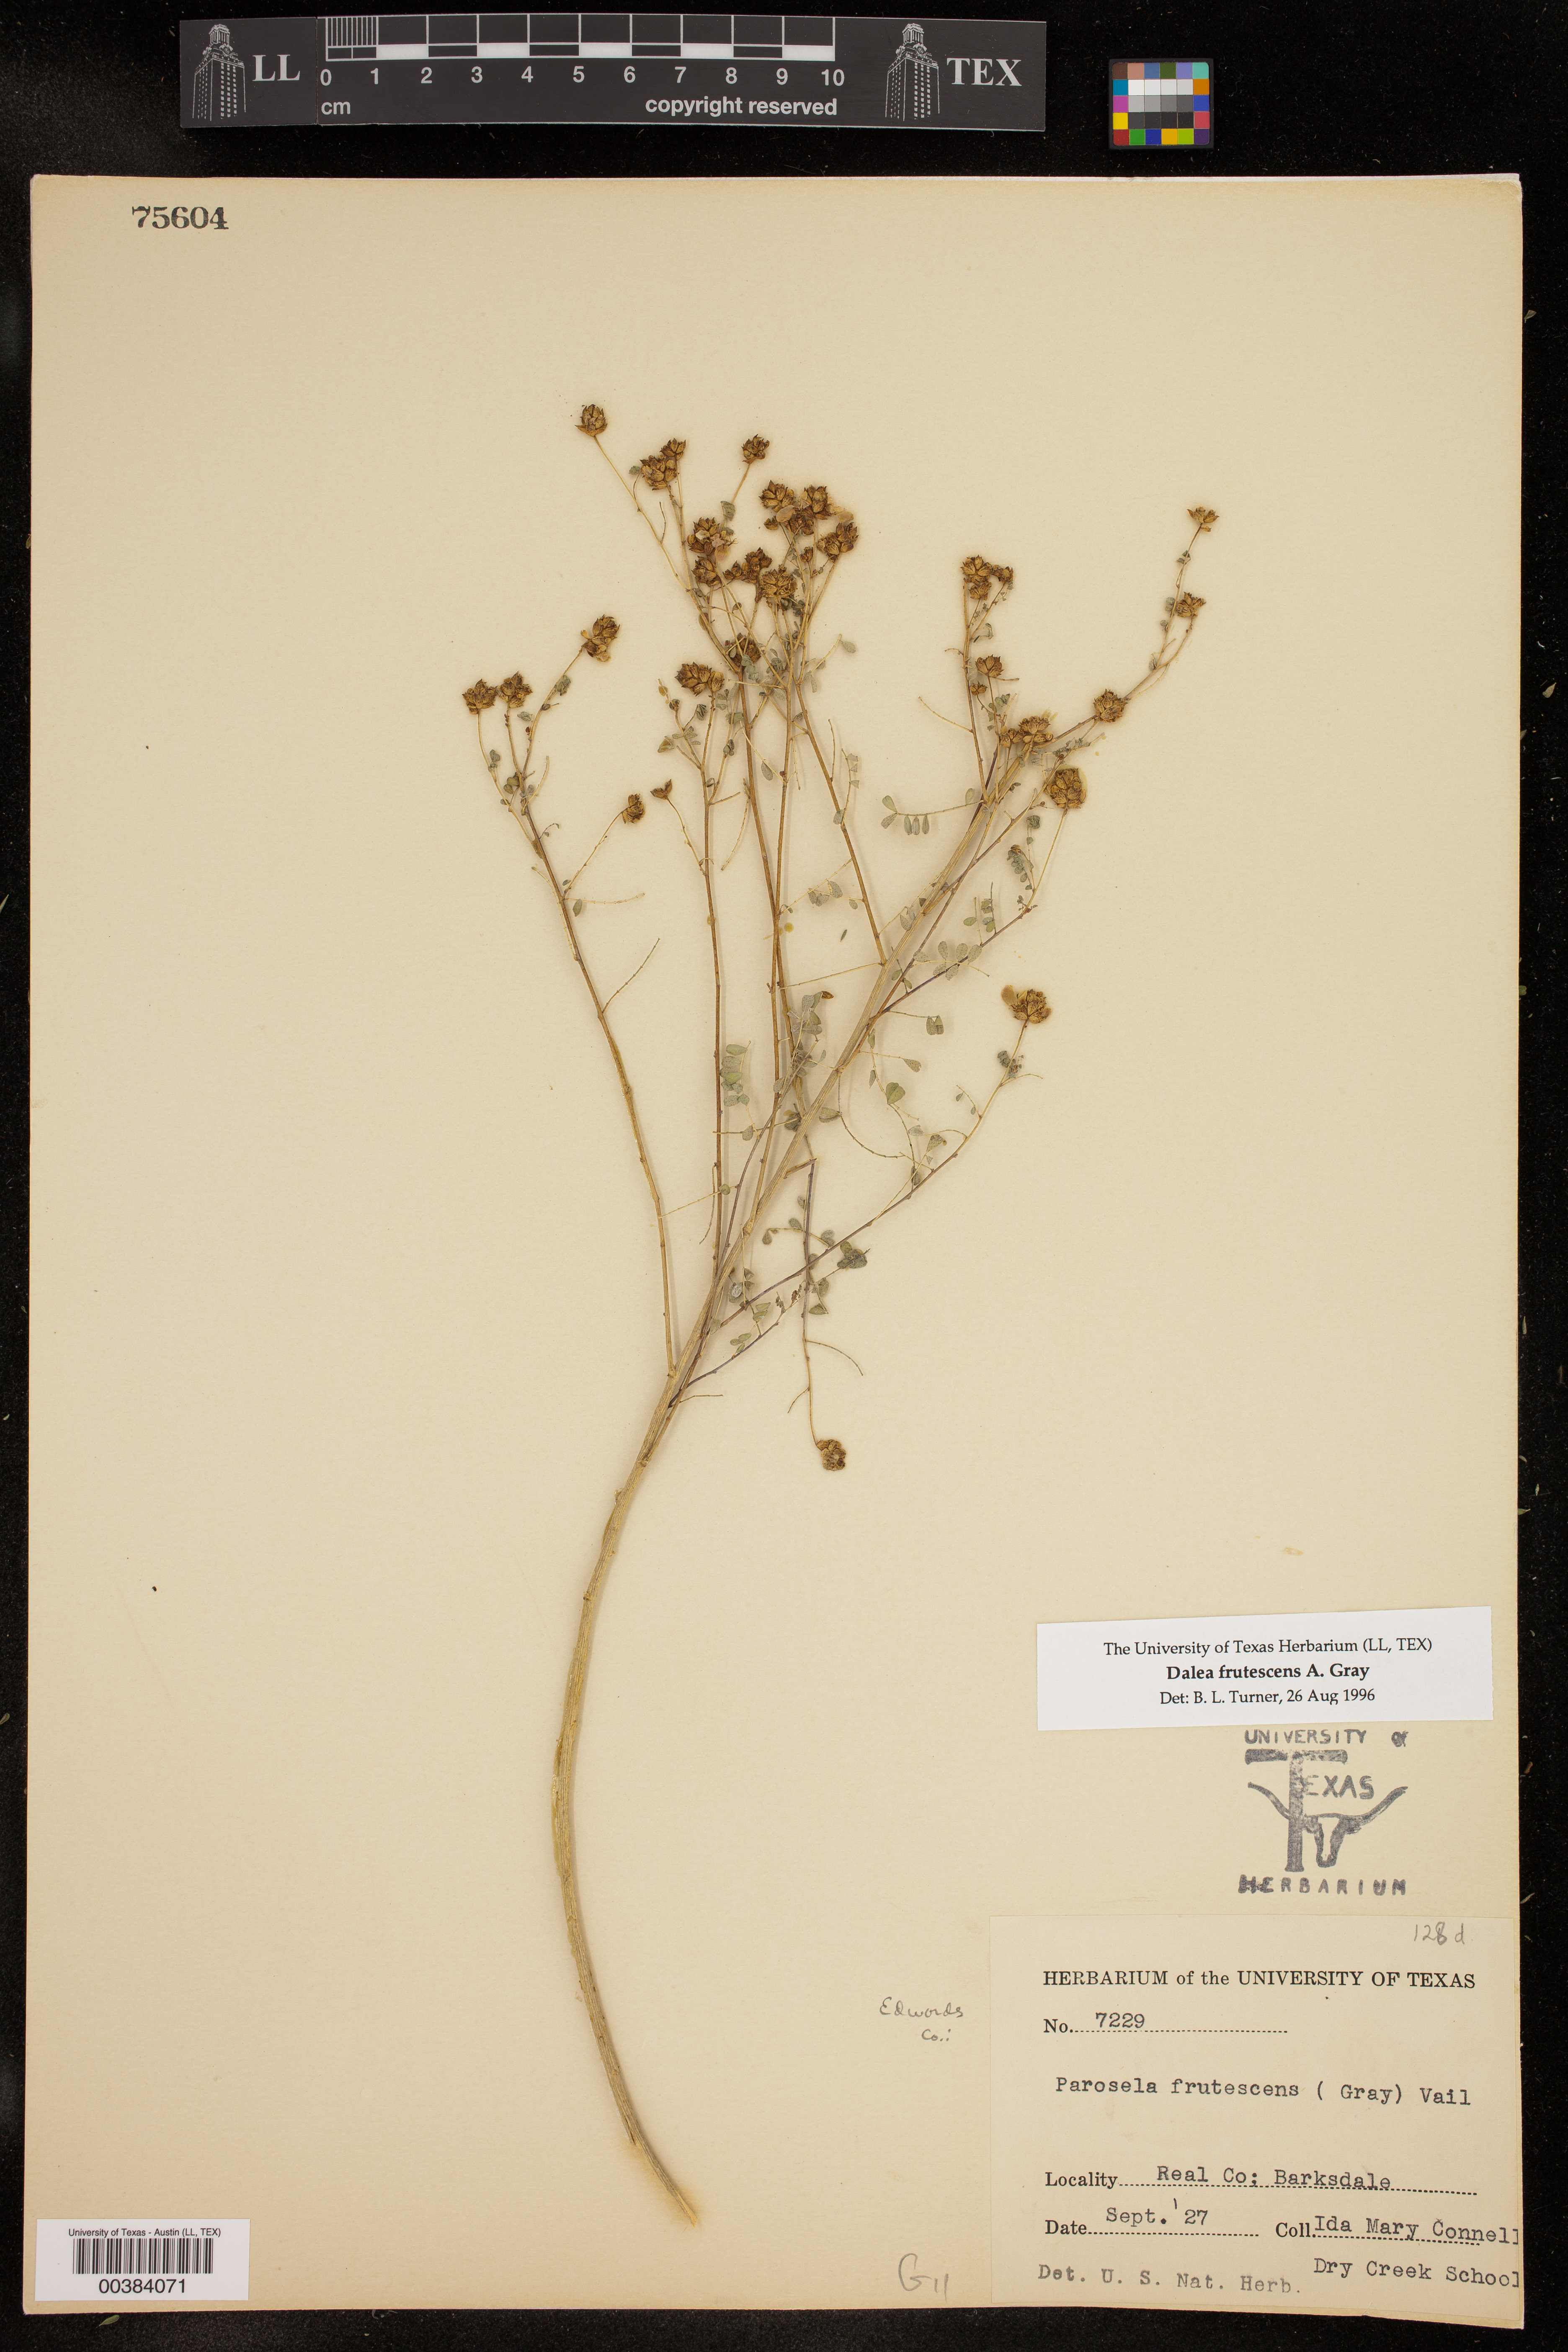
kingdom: Plantae
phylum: Tracheophyta
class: Magnoliopsida
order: Fabales
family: Fabaceae
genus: Dalea
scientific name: Dalea frutescens
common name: Black dalea
